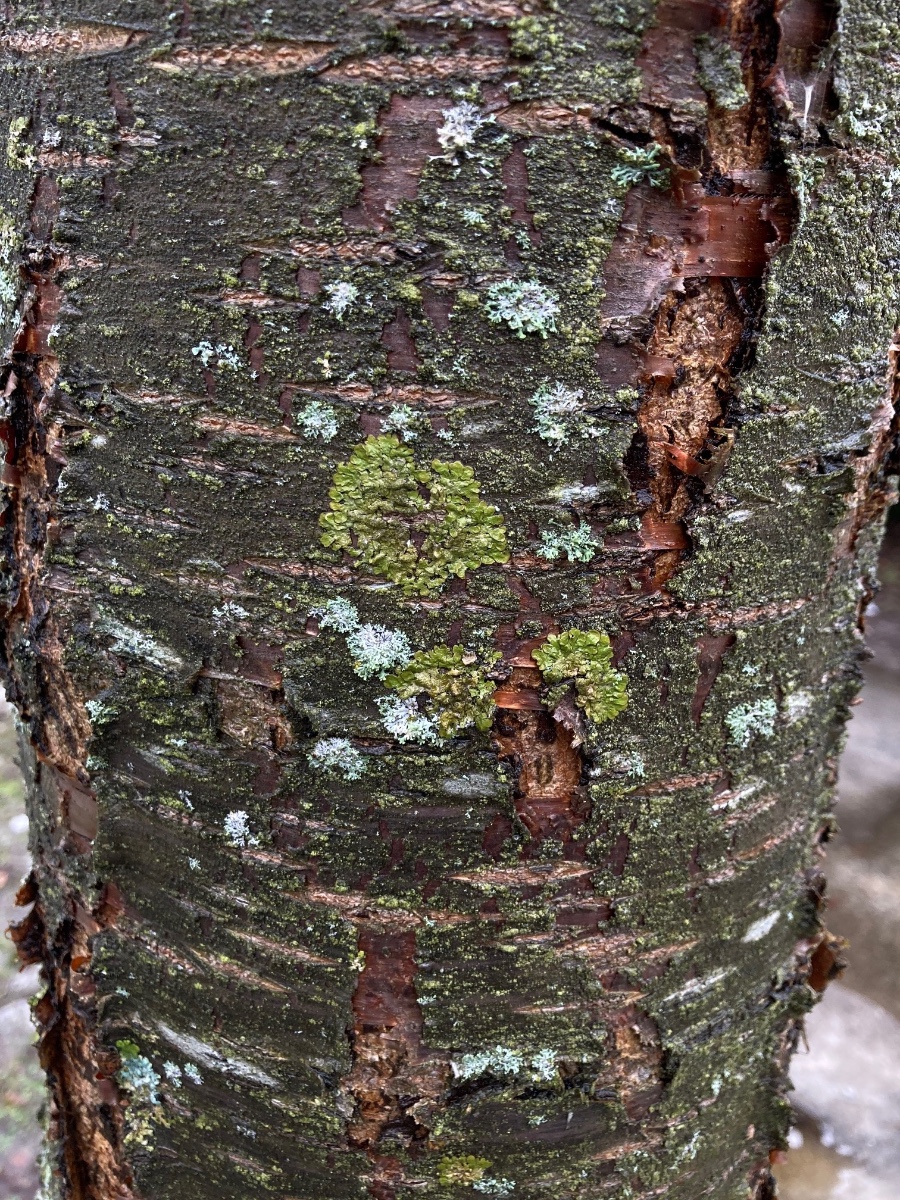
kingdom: Fungi
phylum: Ascomycota
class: Lecanoromycetes
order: Lecanorales
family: Parmeliaceae
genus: Melanelixia
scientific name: Melanelixia glabratula
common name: glinsende skållav
